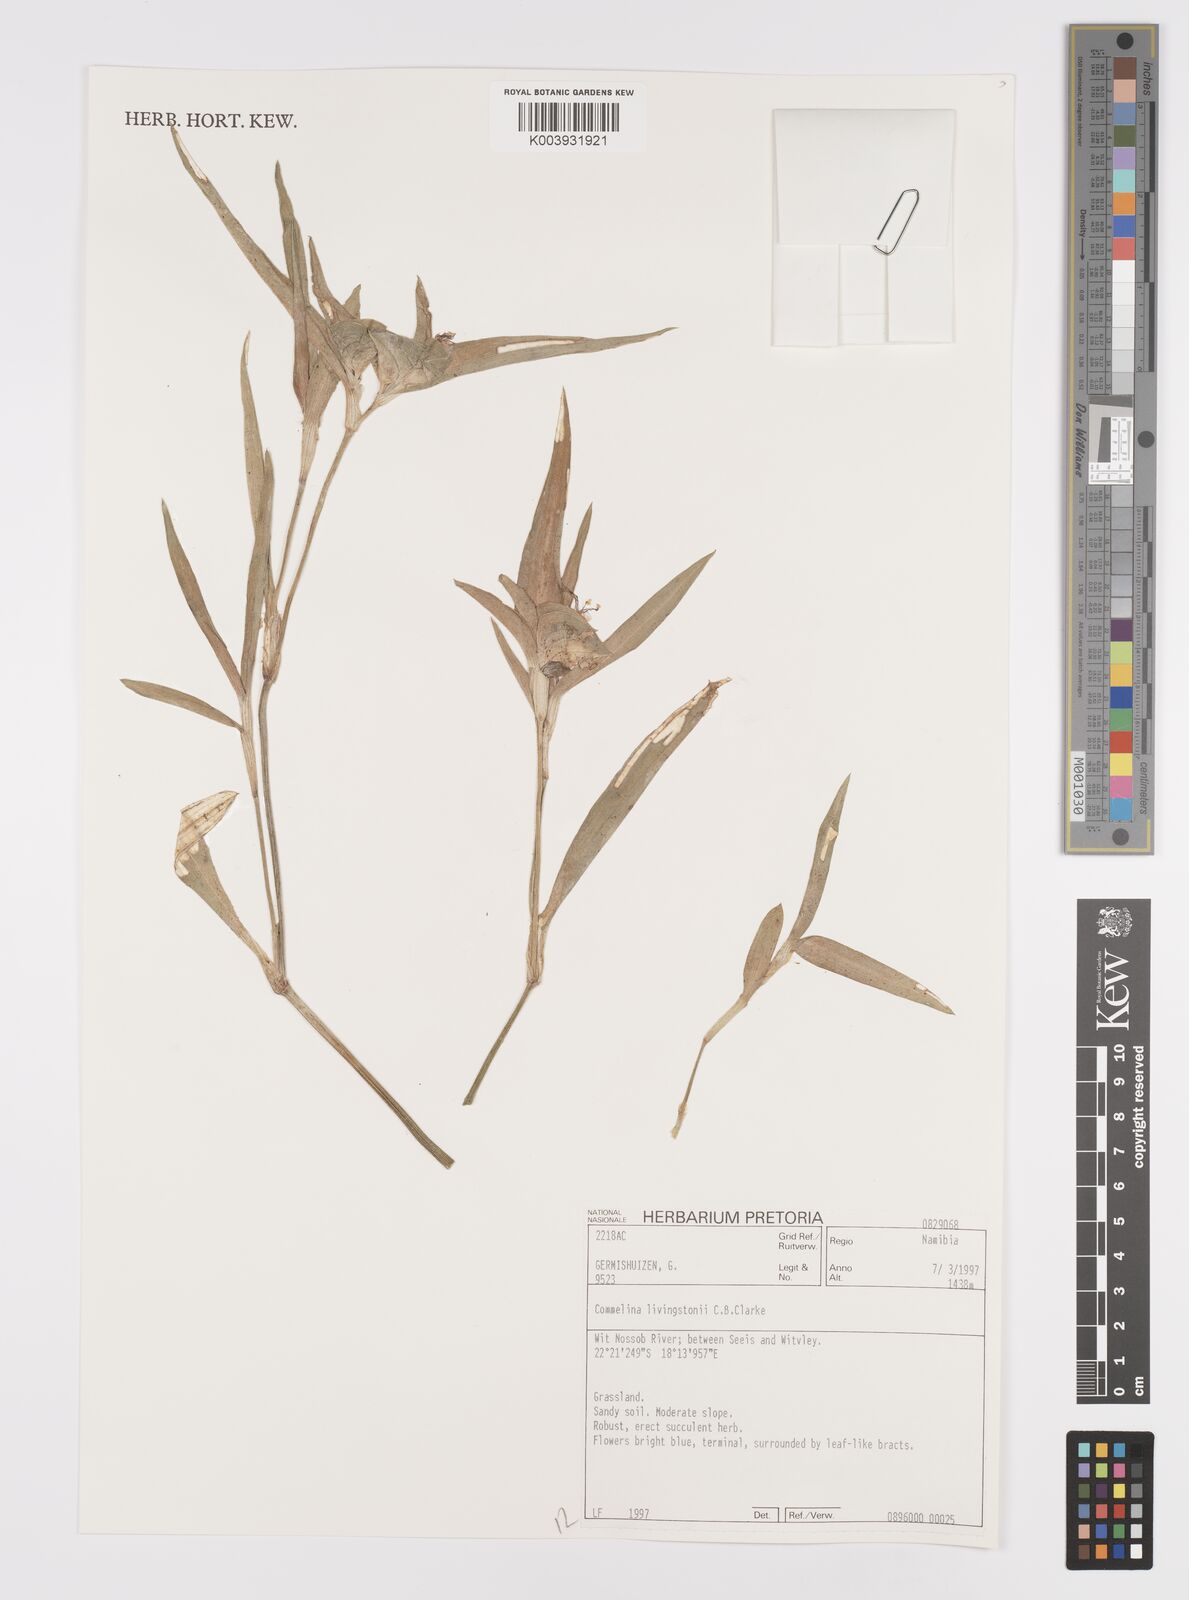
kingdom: Plantae
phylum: Tracheophyta
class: Liliopsida
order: Commelinales
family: Commelinaceae
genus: Commelina
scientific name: Commelina erecta
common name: Blousel blommetjie
